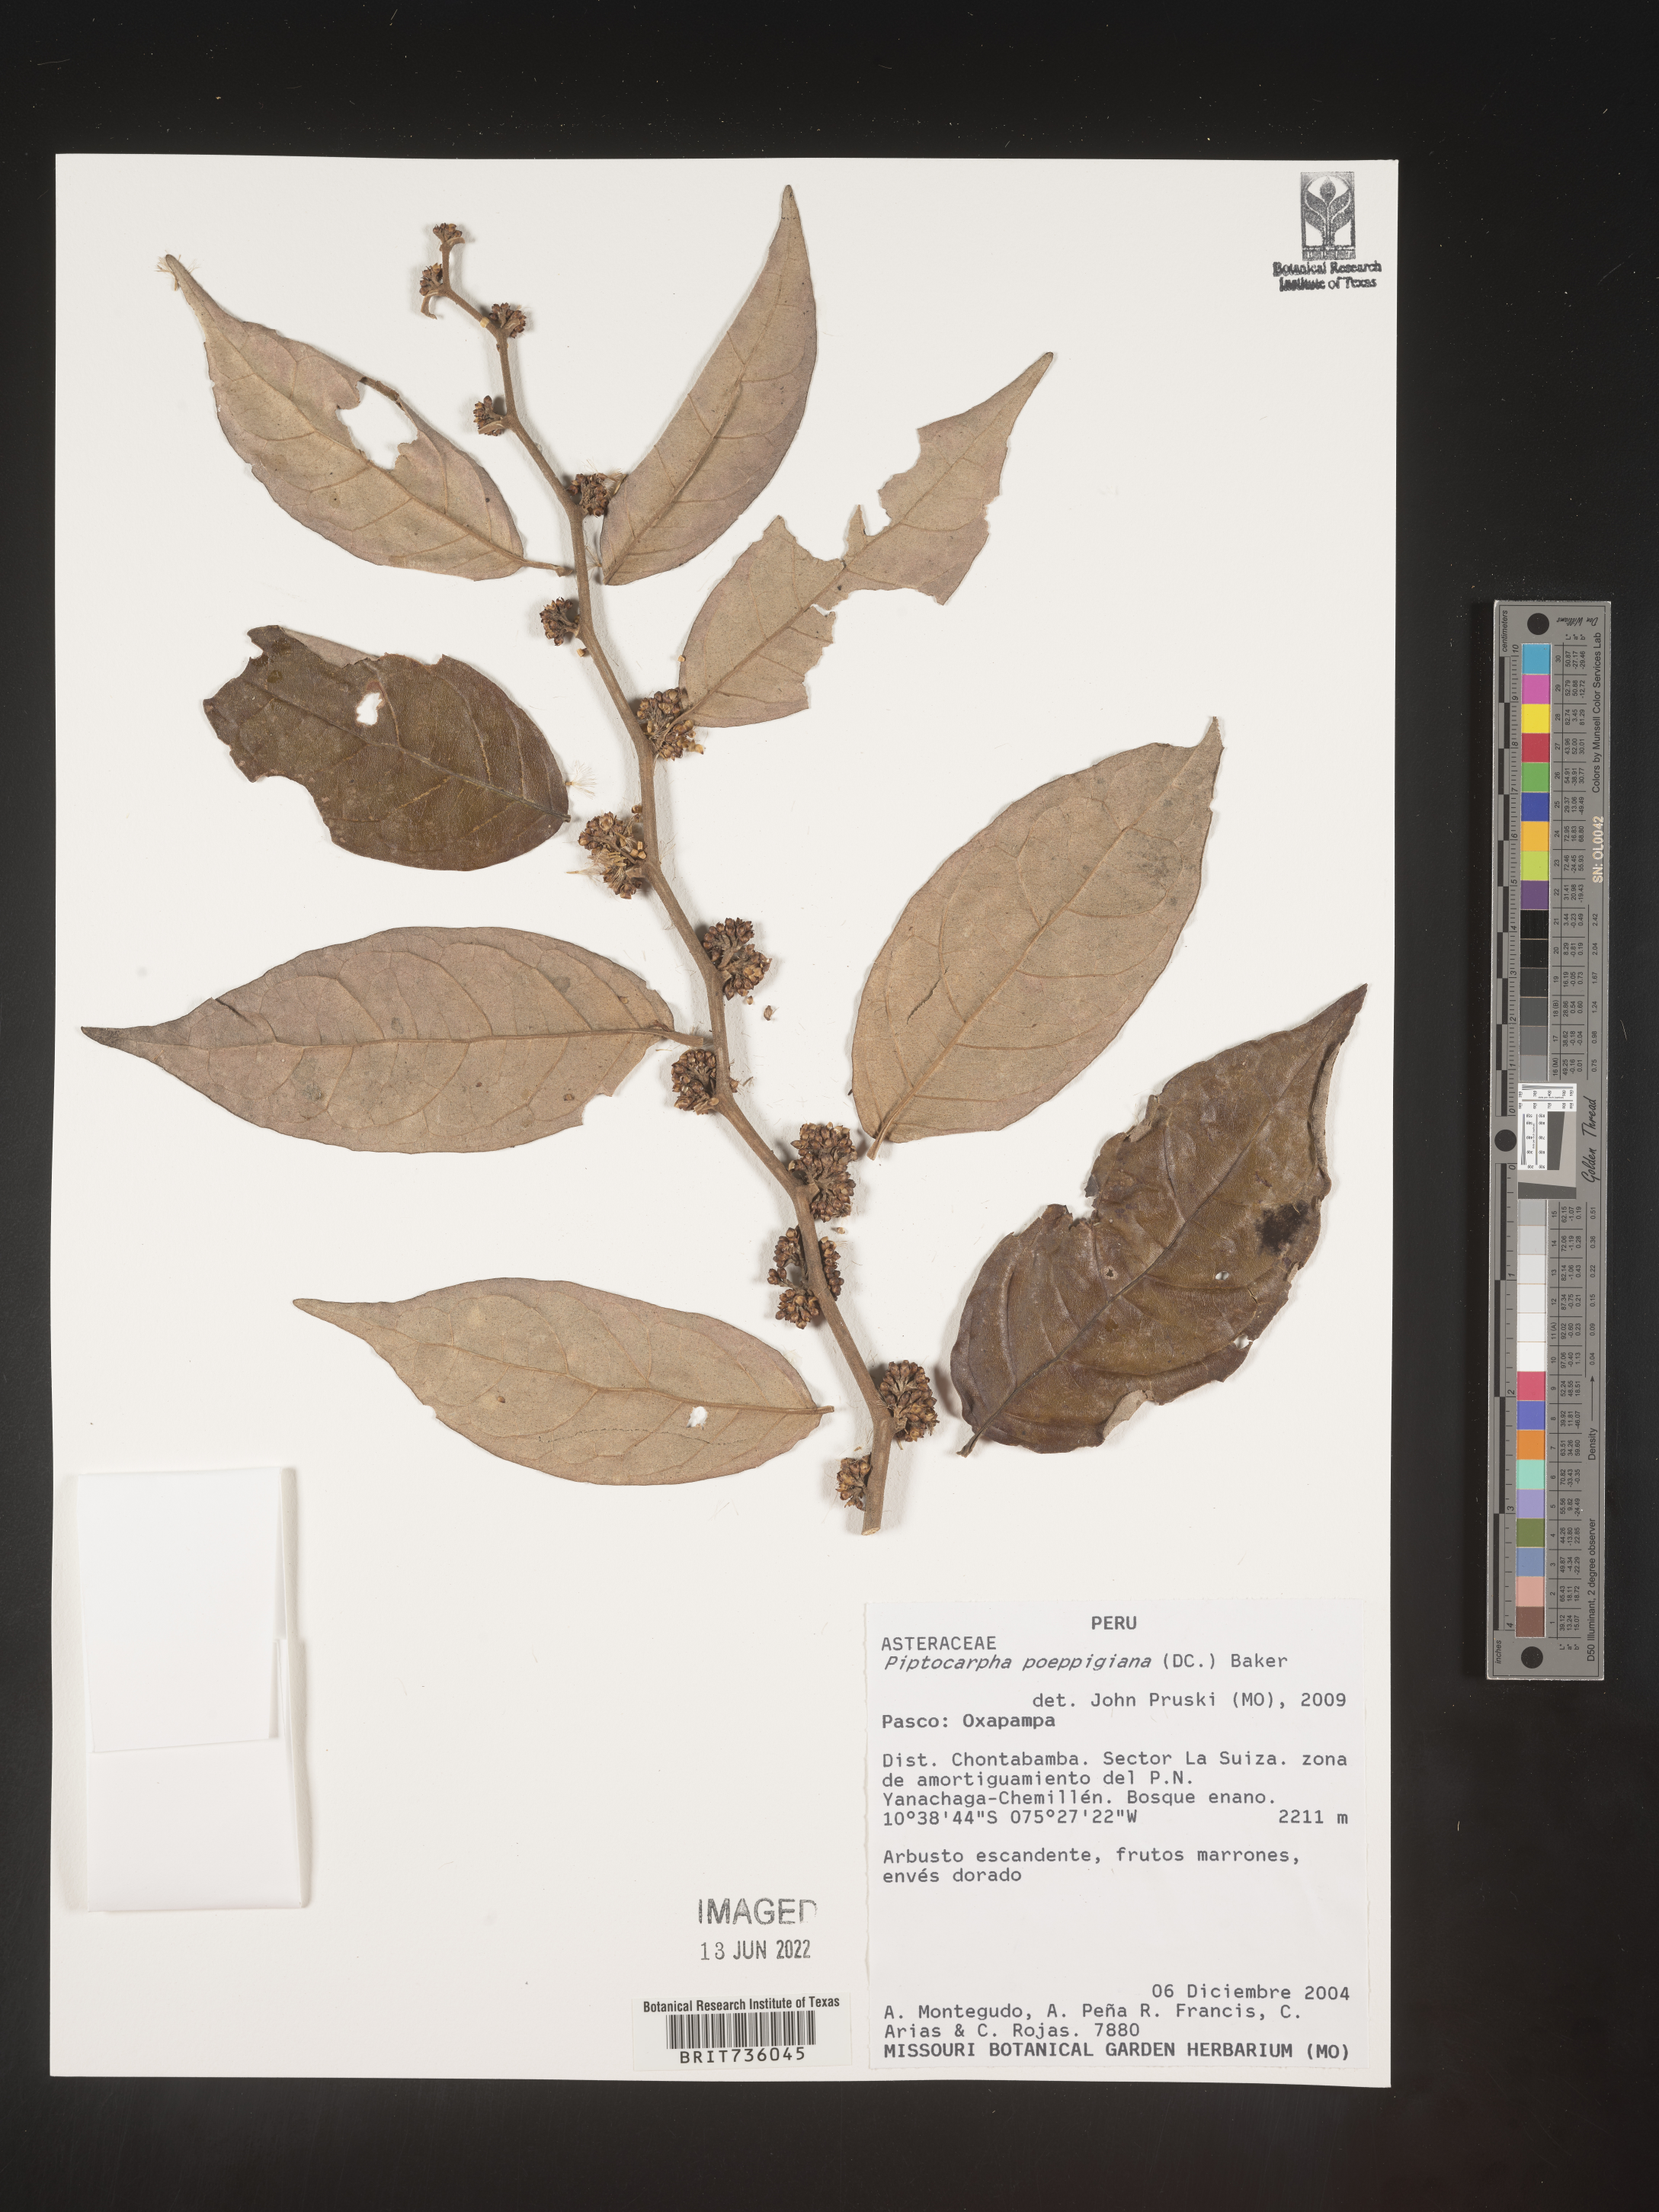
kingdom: Plantae
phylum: Tracheophyta
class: Magnoliopsida
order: Asterales
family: Asteraceae
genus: Piptocarpha
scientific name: Piptocarpha
